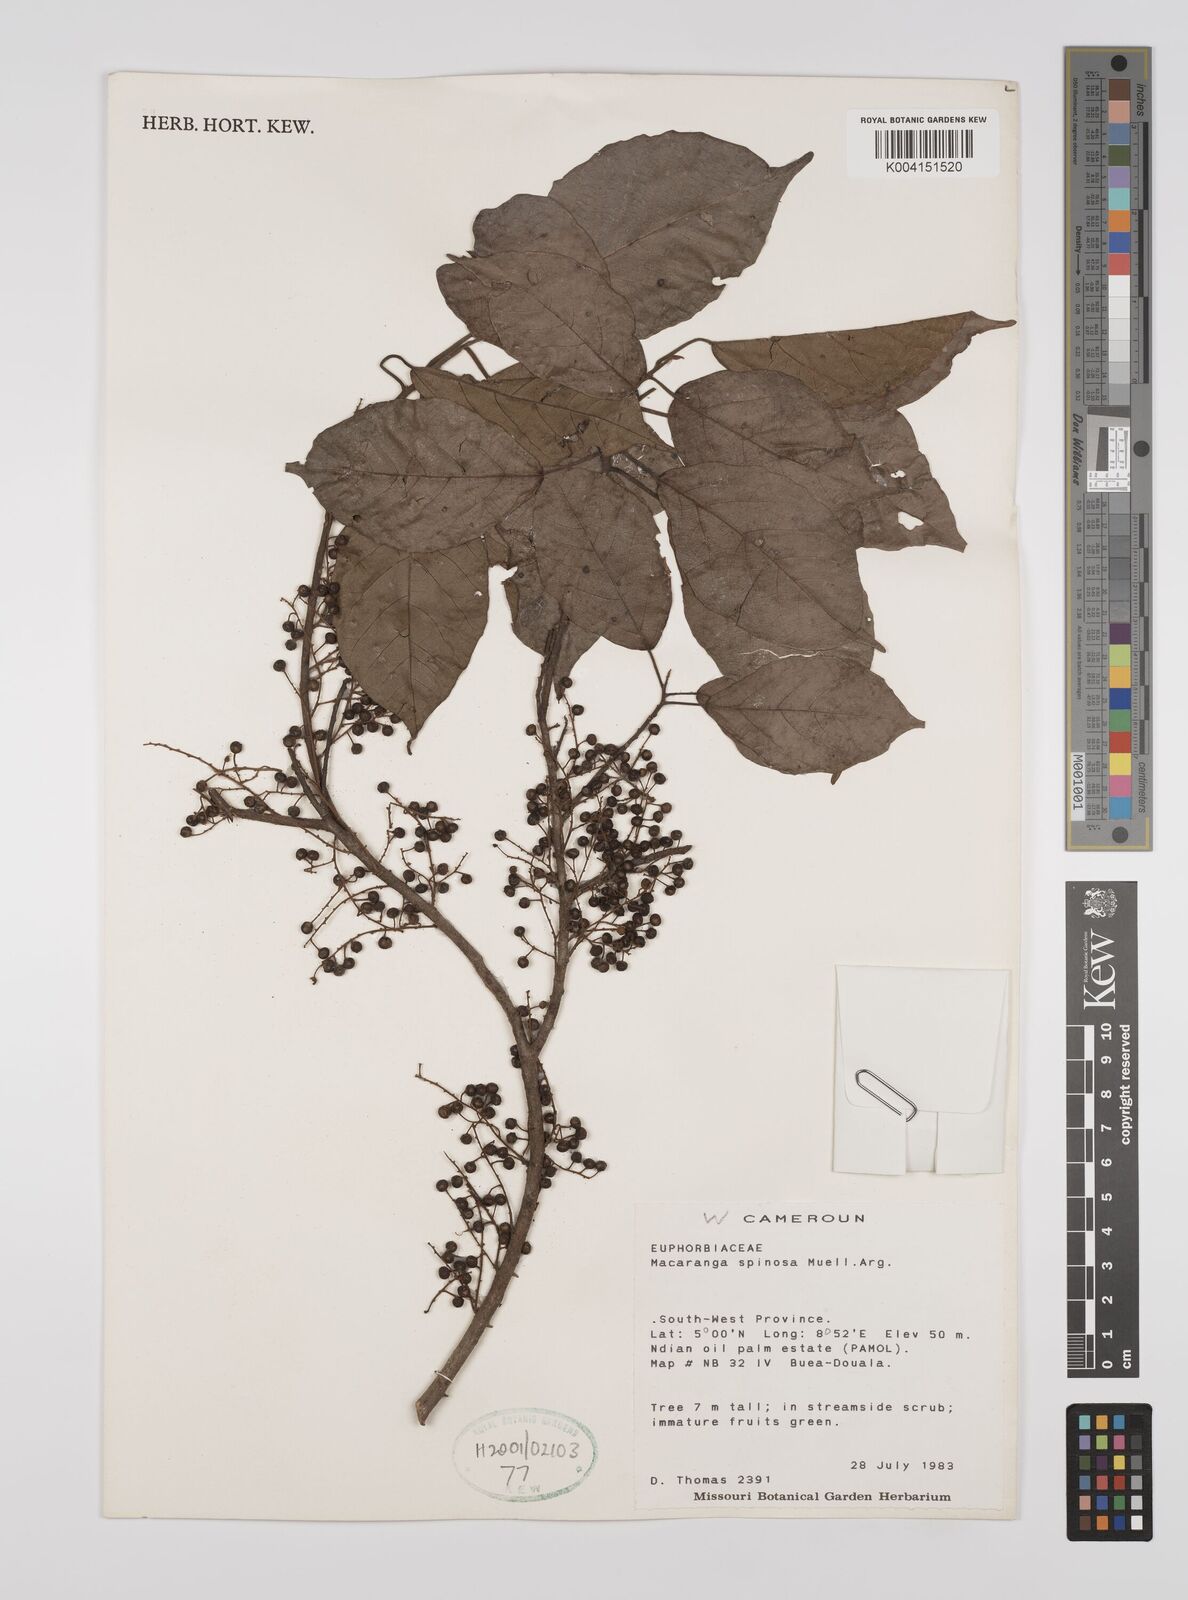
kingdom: Plantae
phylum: Tracheophyta
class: Magnoliopsida
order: Malpighiales
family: Euphorbiaceae
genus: Macaranga
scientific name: Macaranga spinosa
